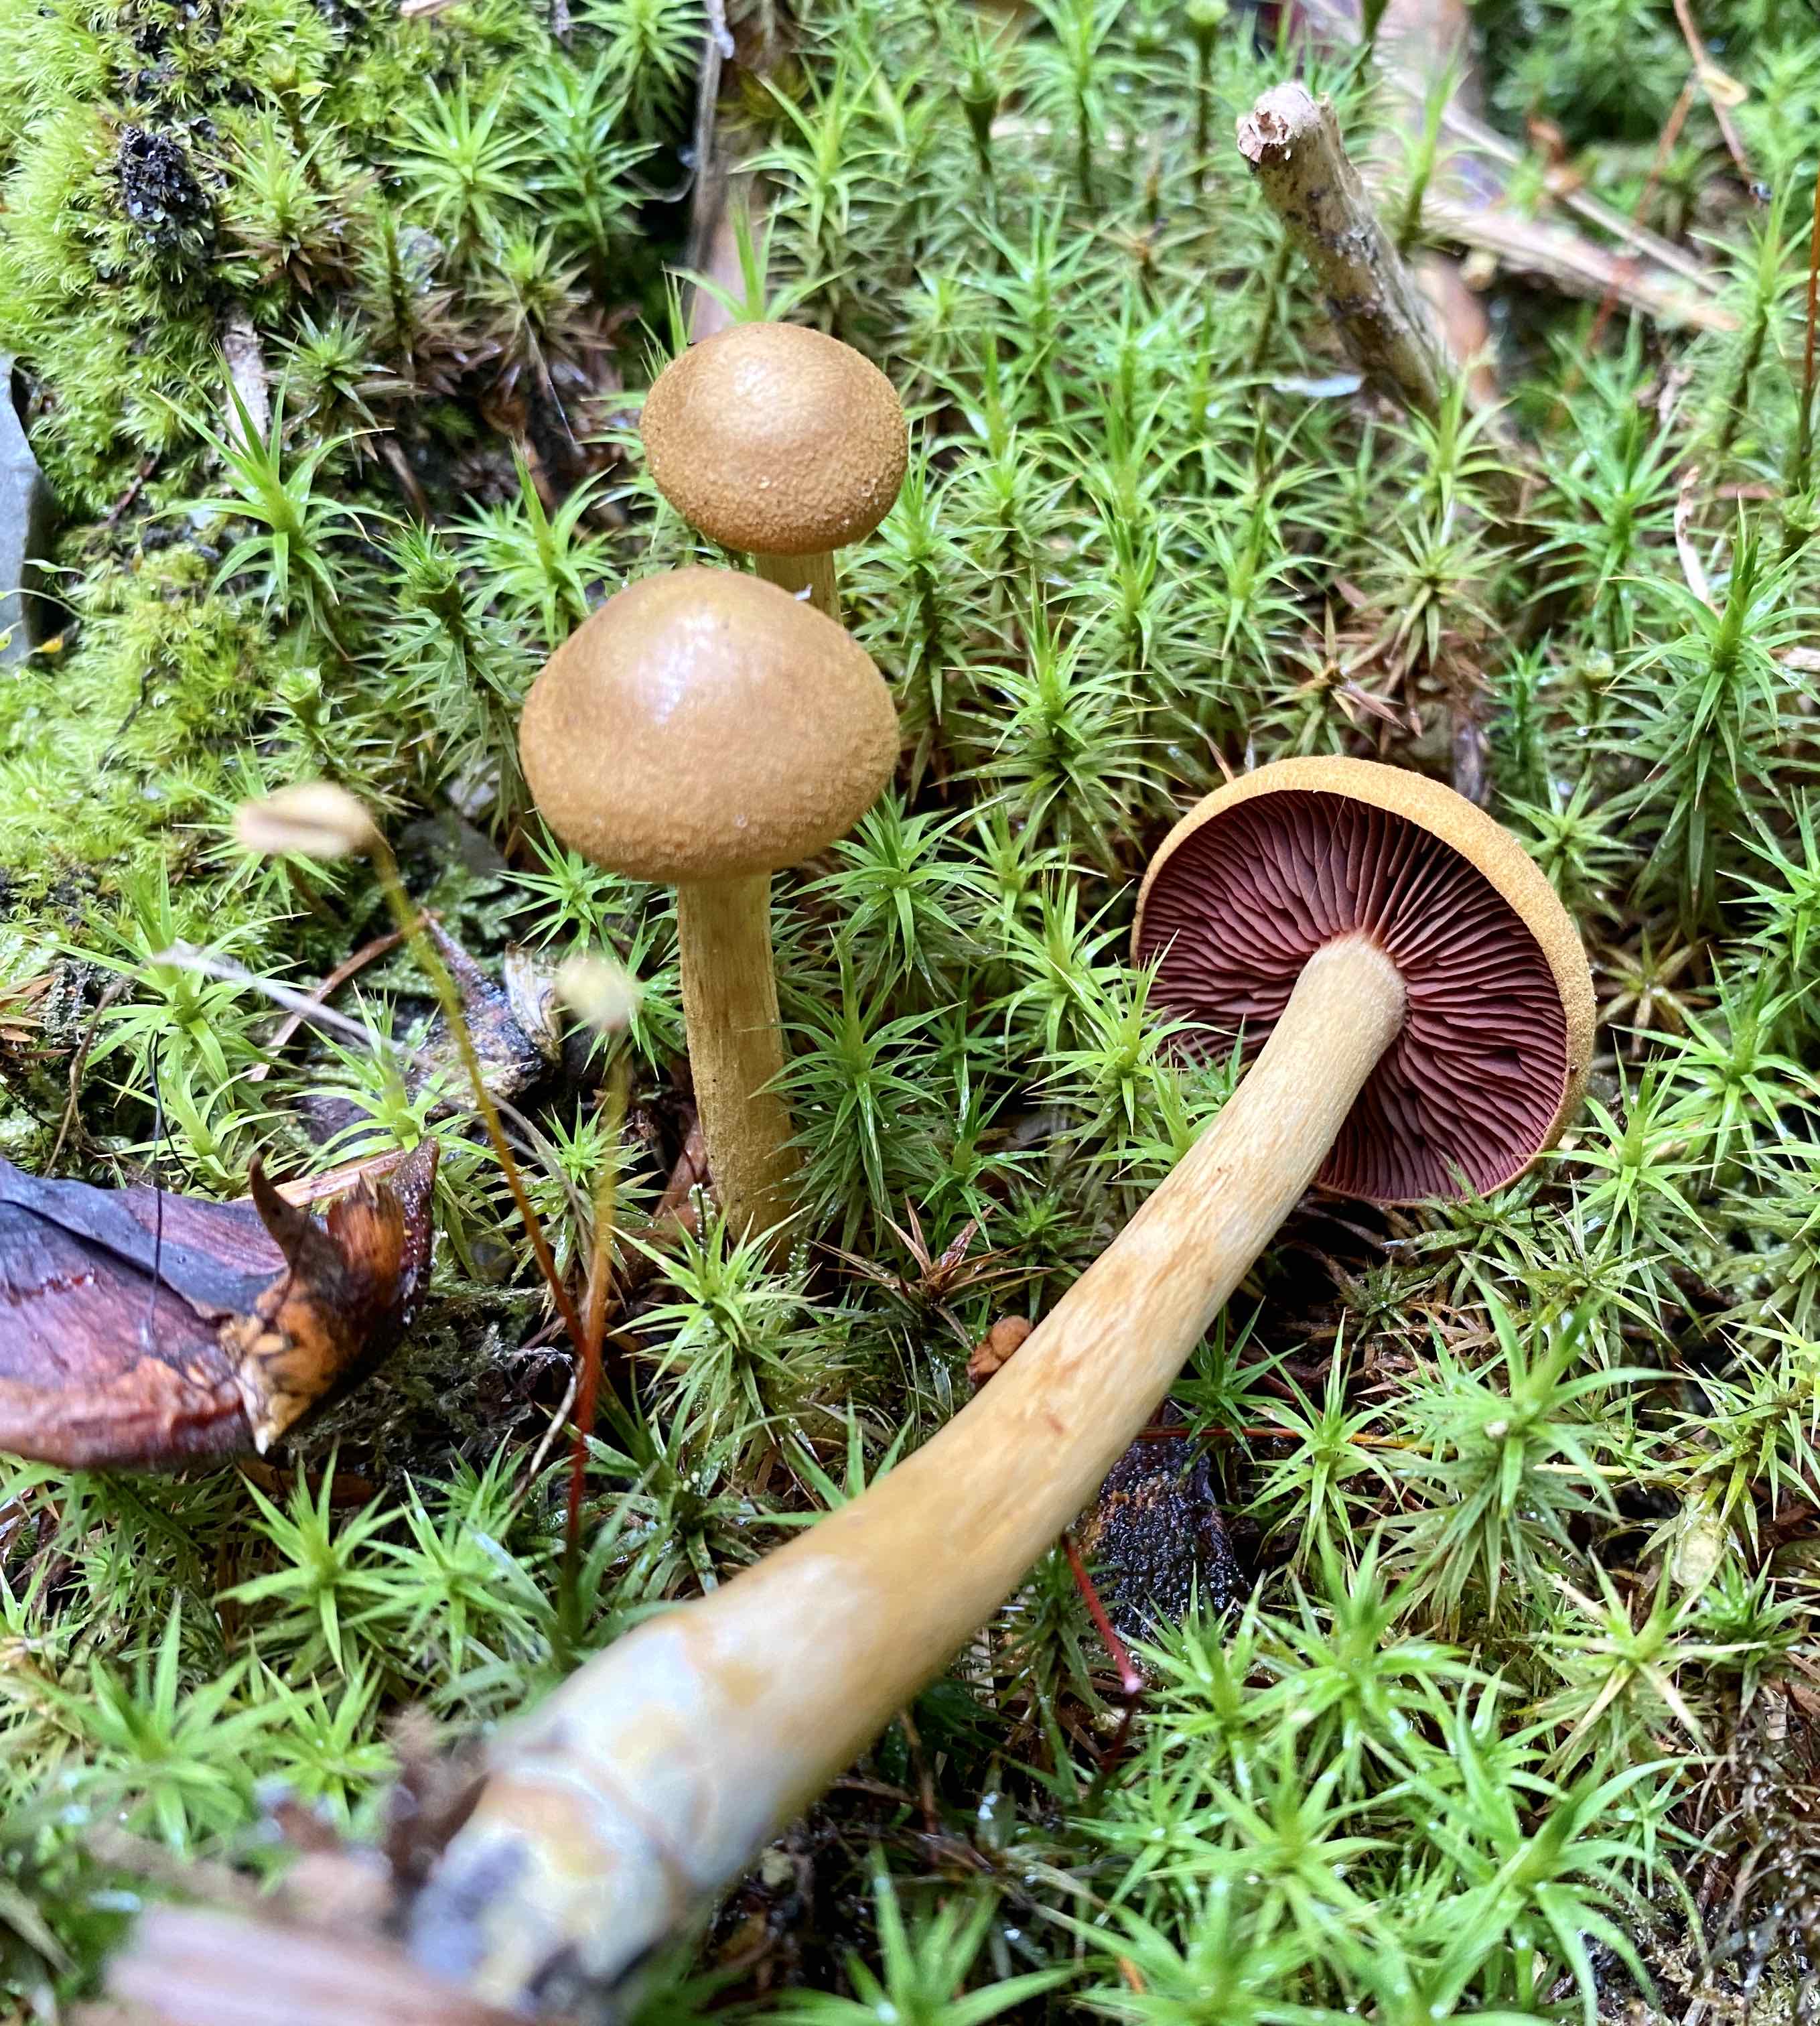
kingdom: Fungi
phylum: Basidiomycota
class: Agaricomycetes
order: Agaricales
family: Cortinariaceae
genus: Cortinarius
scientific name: Cortinarius
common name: cinnoberbladet slørhat
